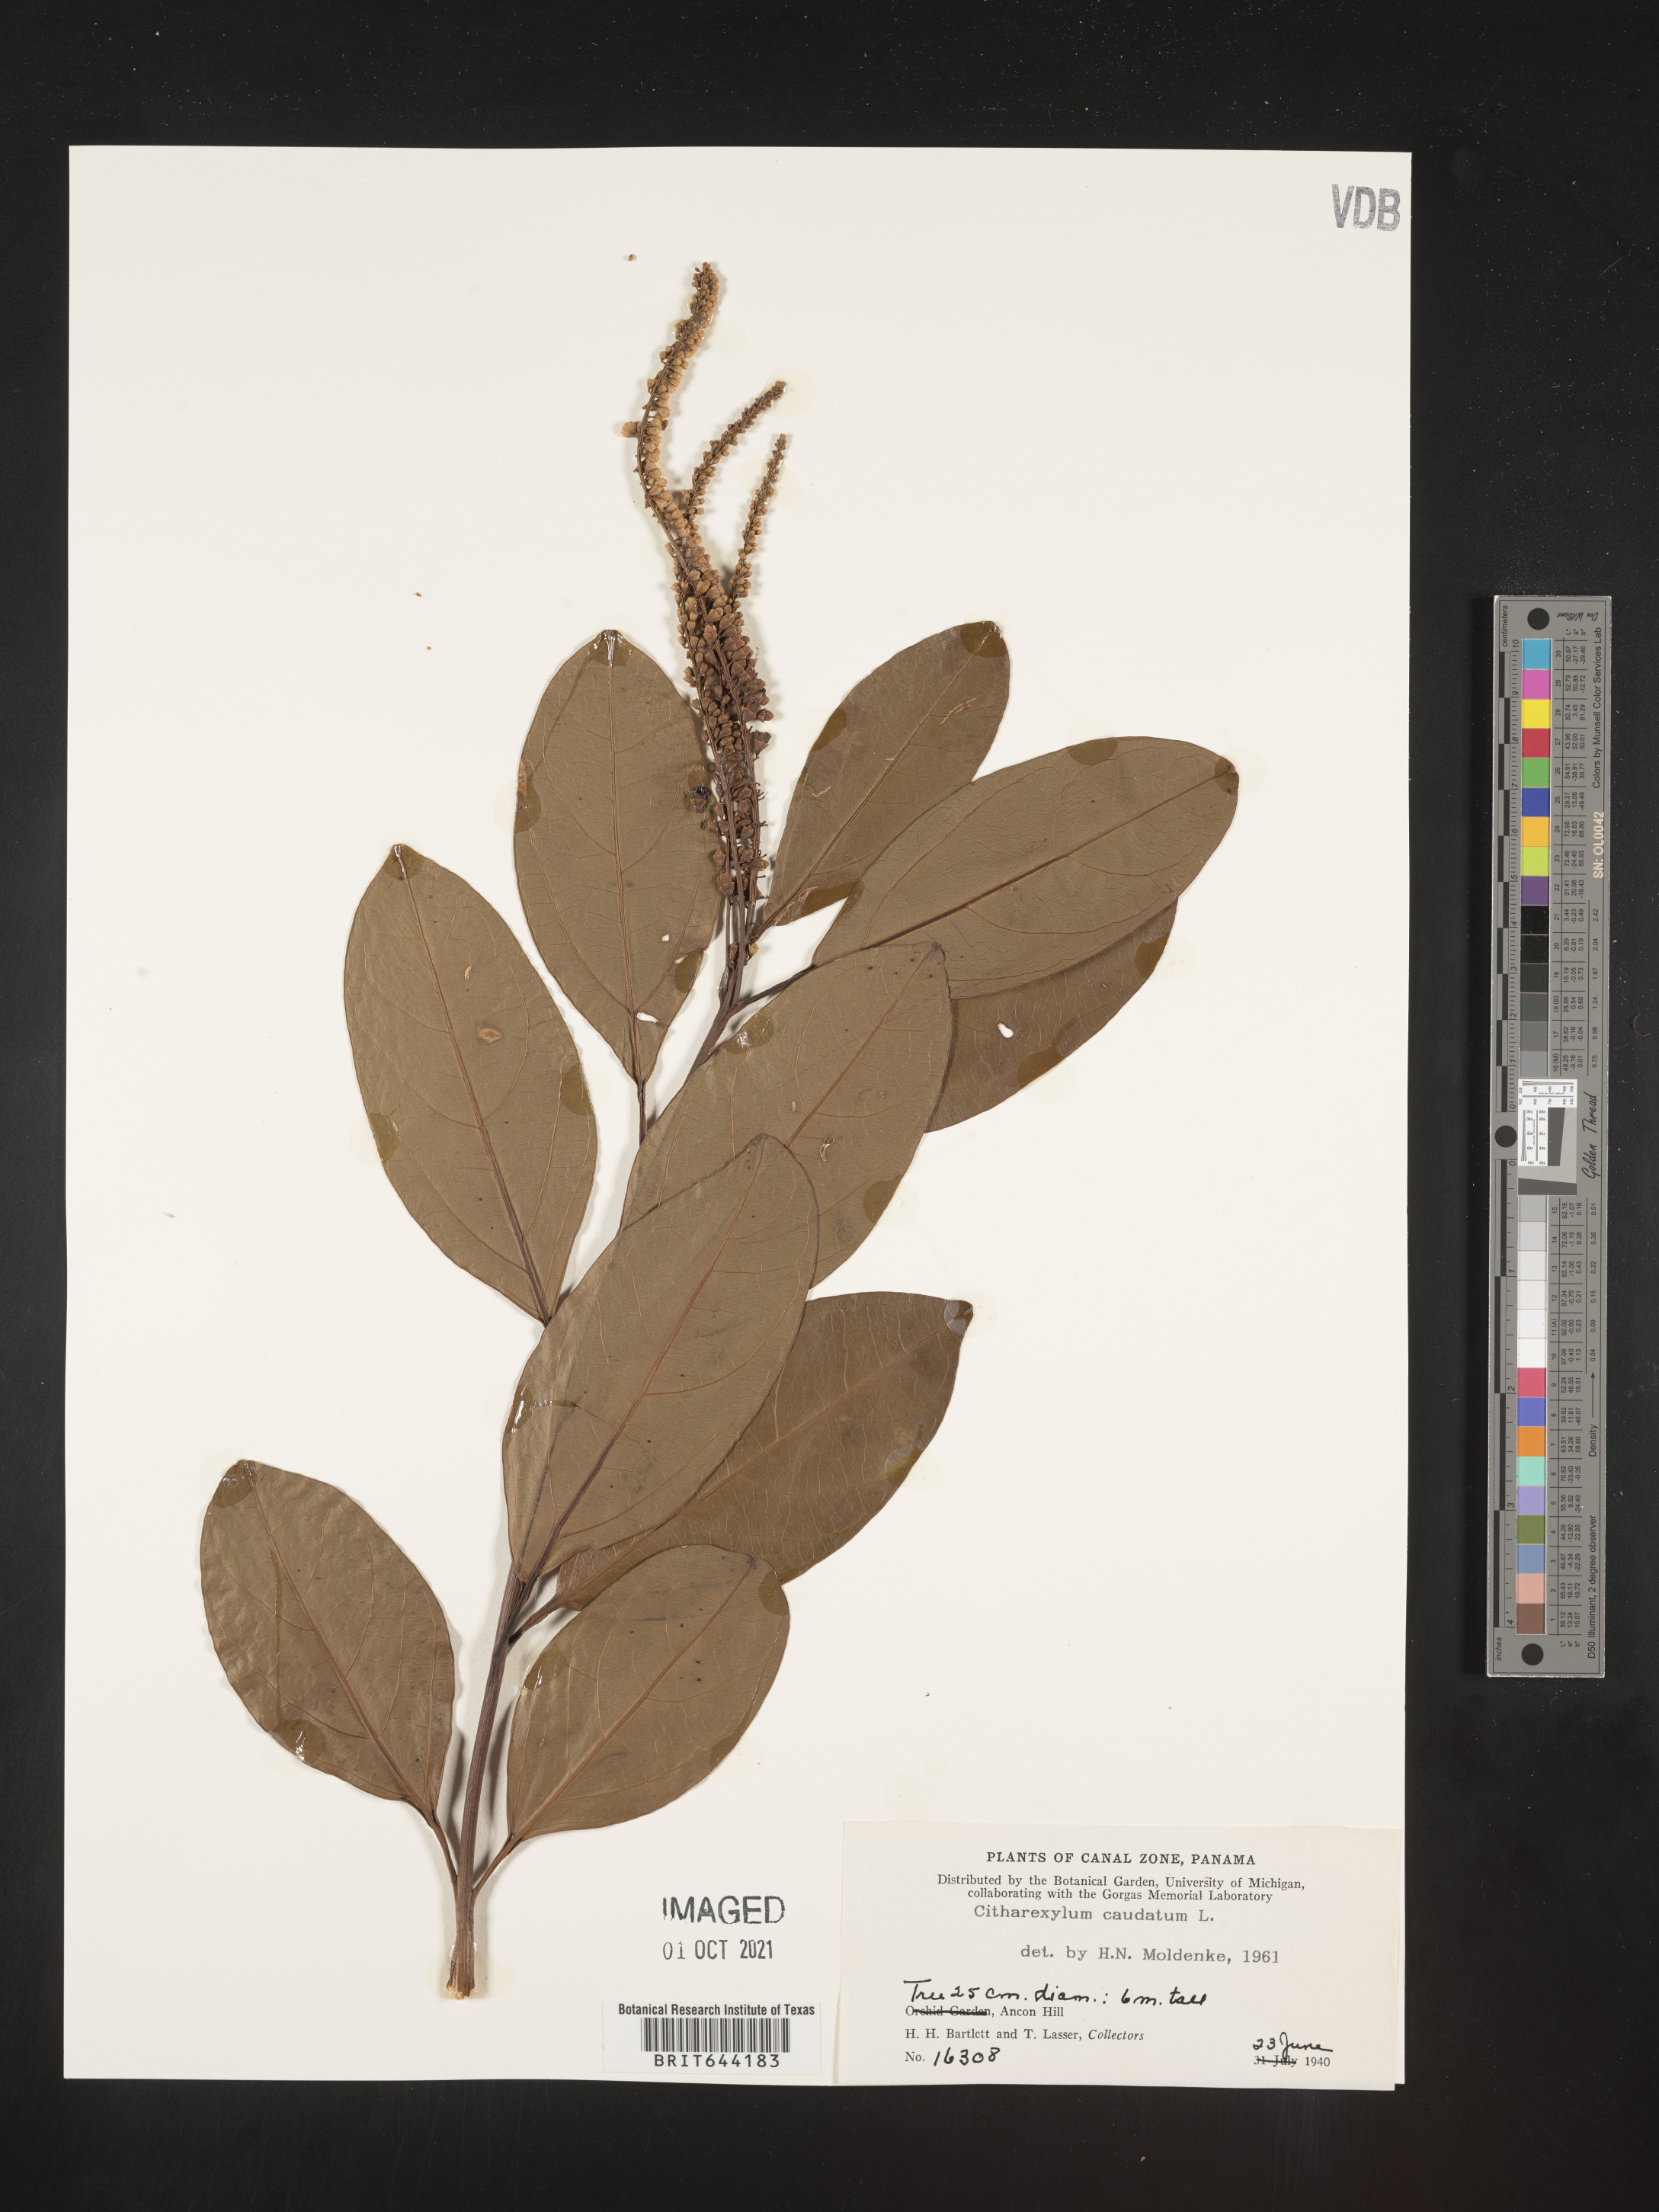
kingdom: Plantae
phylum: Tracheophyta
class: Magnoliopsida
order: Lamiales
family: Verbenaceae
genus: Citharexylum
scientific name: Citharexylum
